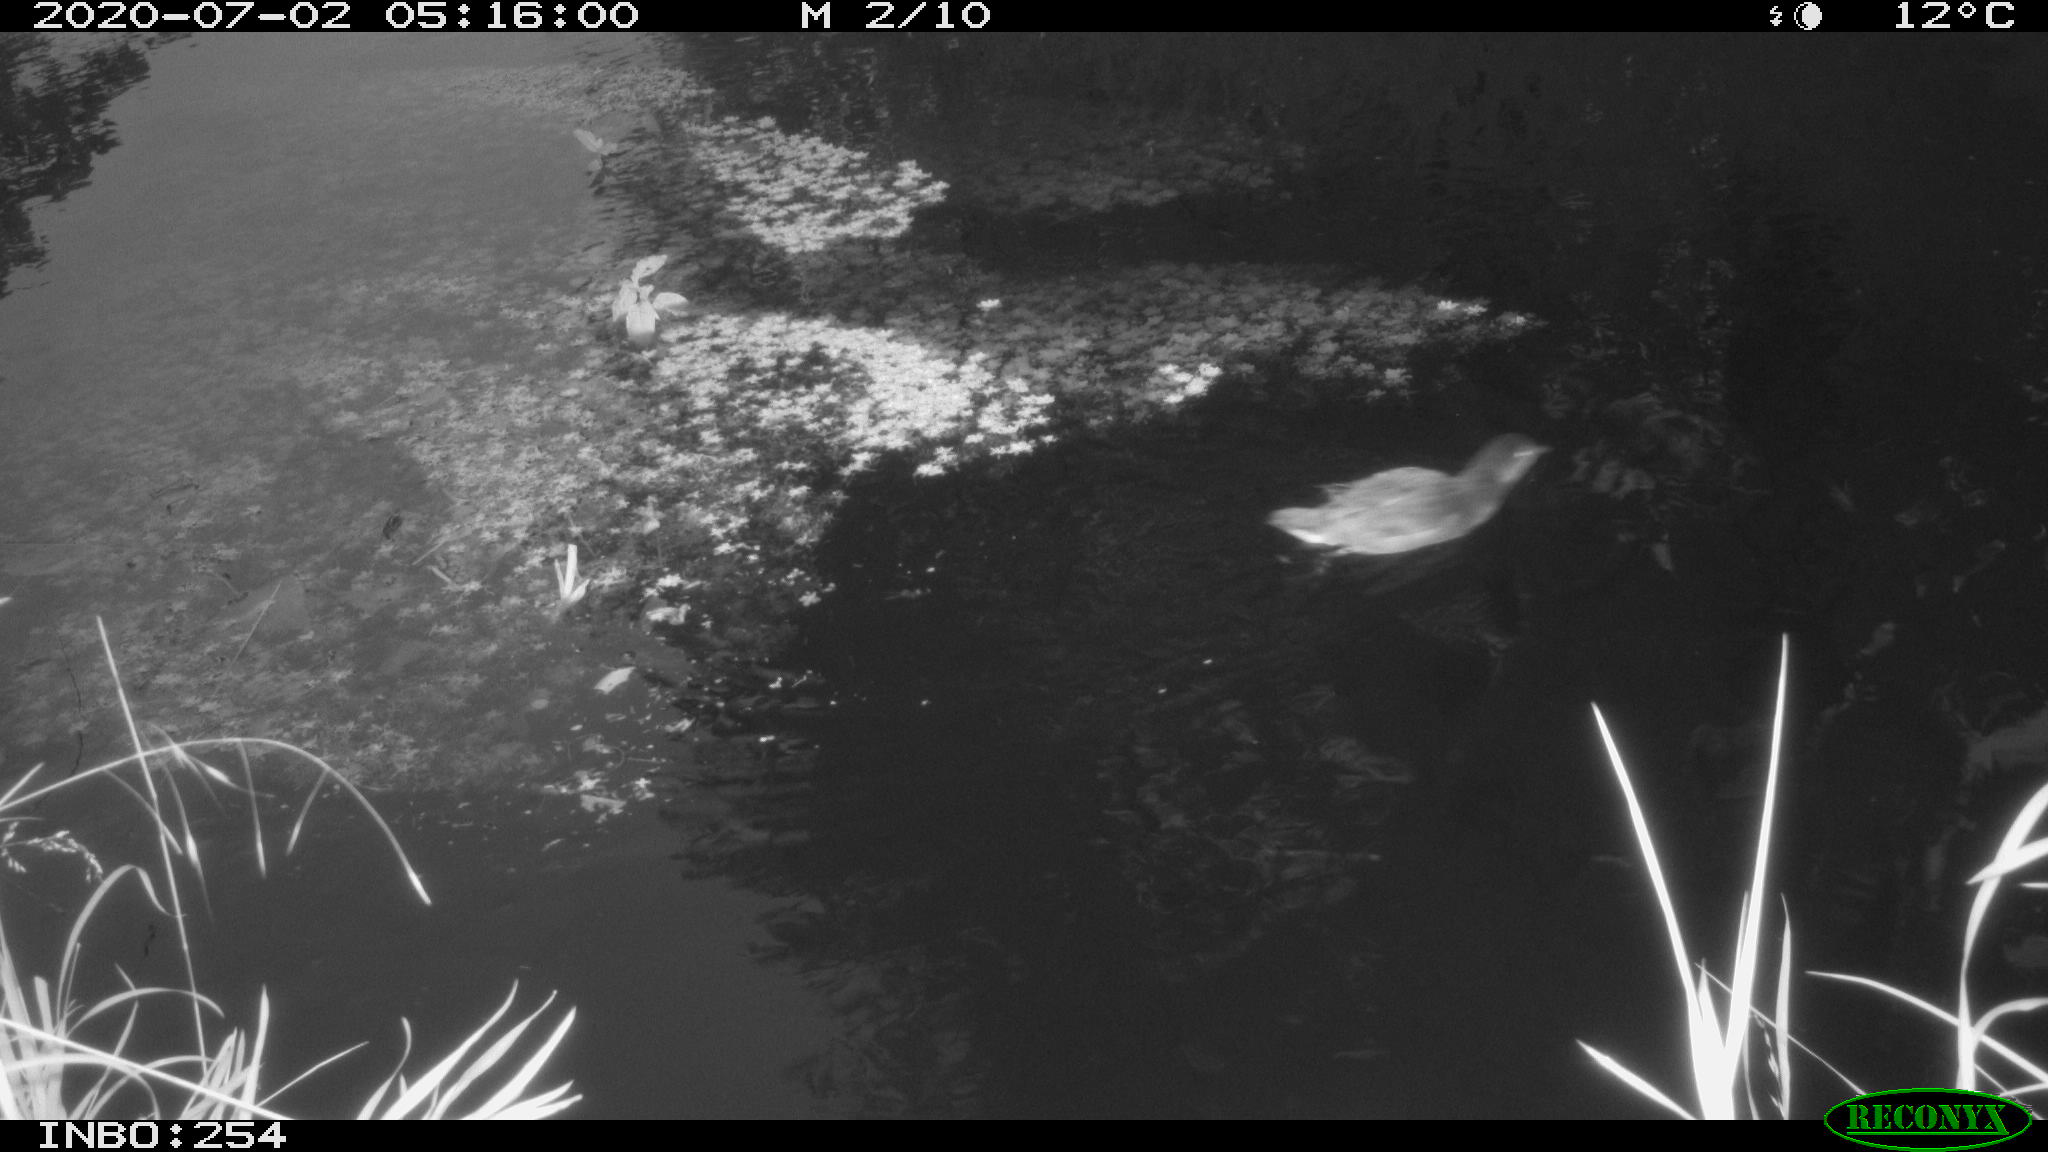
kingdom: Animalia
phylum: Chordata
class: Aves
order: Gruiformes
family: Rallidae
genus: Gallinula
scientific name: Gallinula chloropus
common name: Common moorhen
